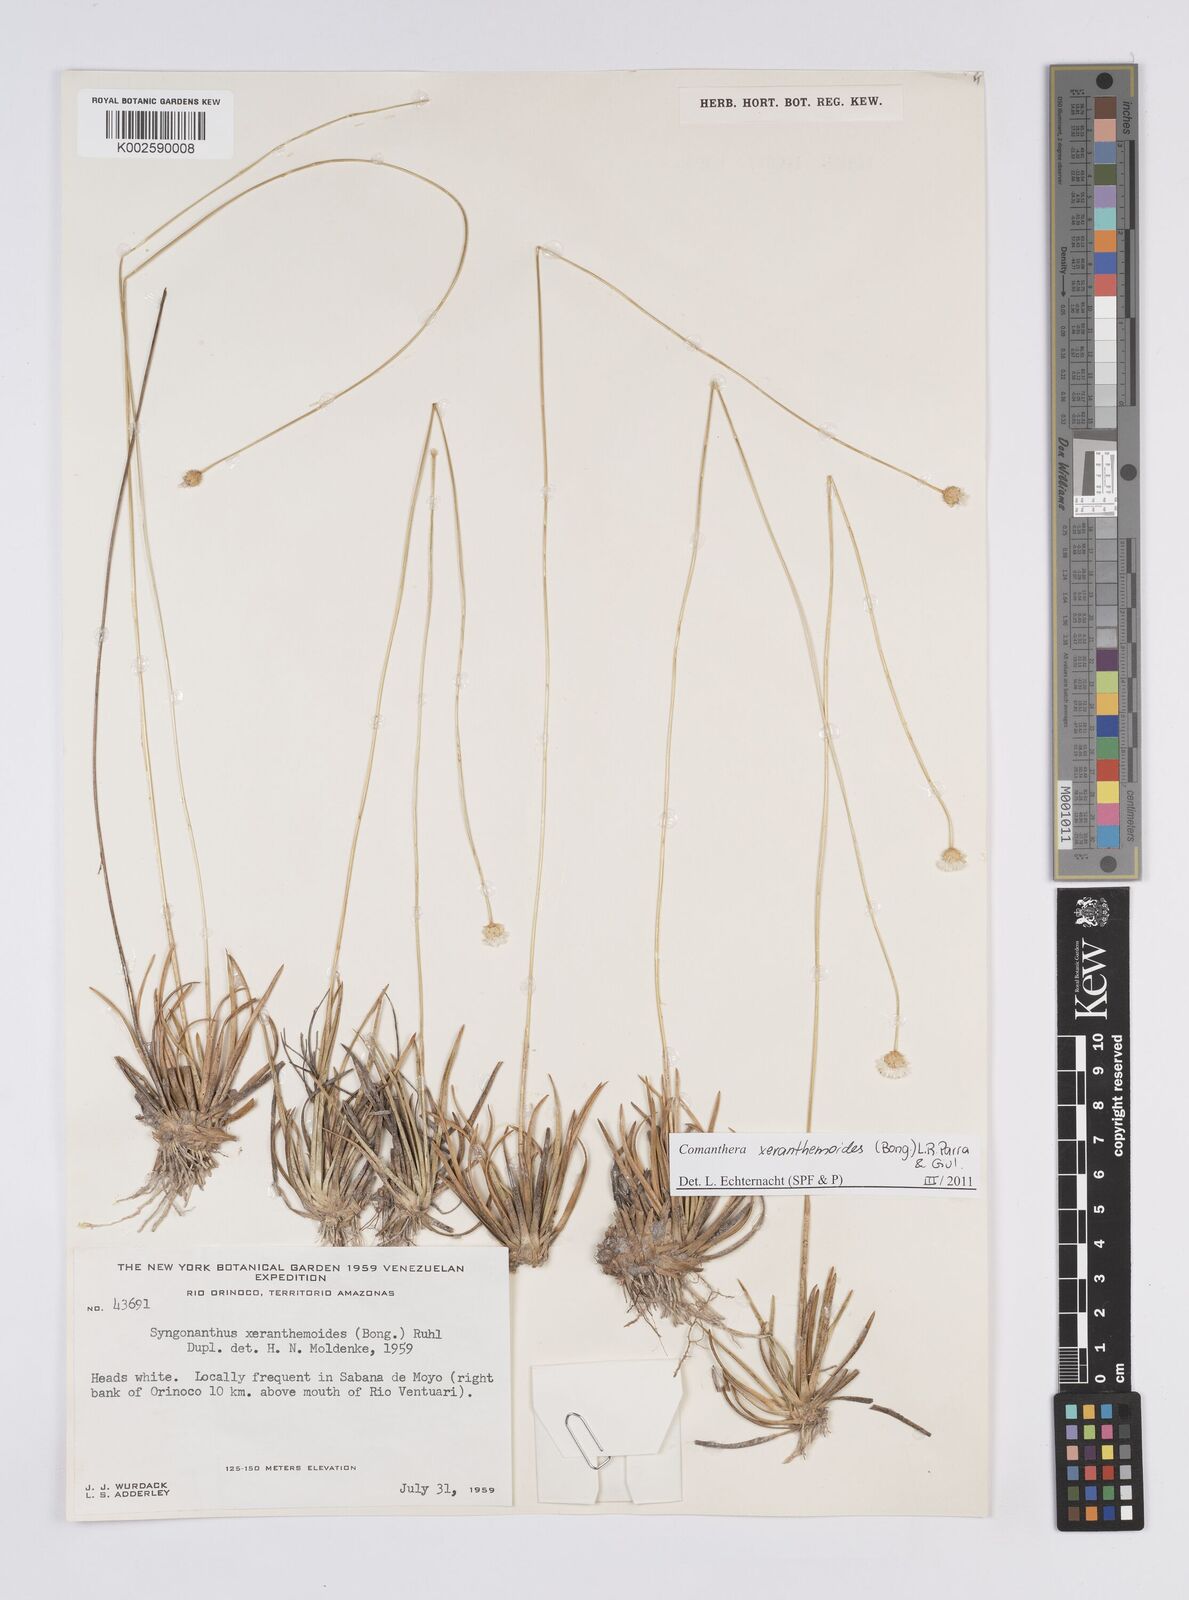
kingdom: Plantae
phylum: Tracheophyta
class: Liliopsida
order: Poales
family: Eriocaulaceae
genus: Comanthera
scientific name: Comanthera xeranthemoides
